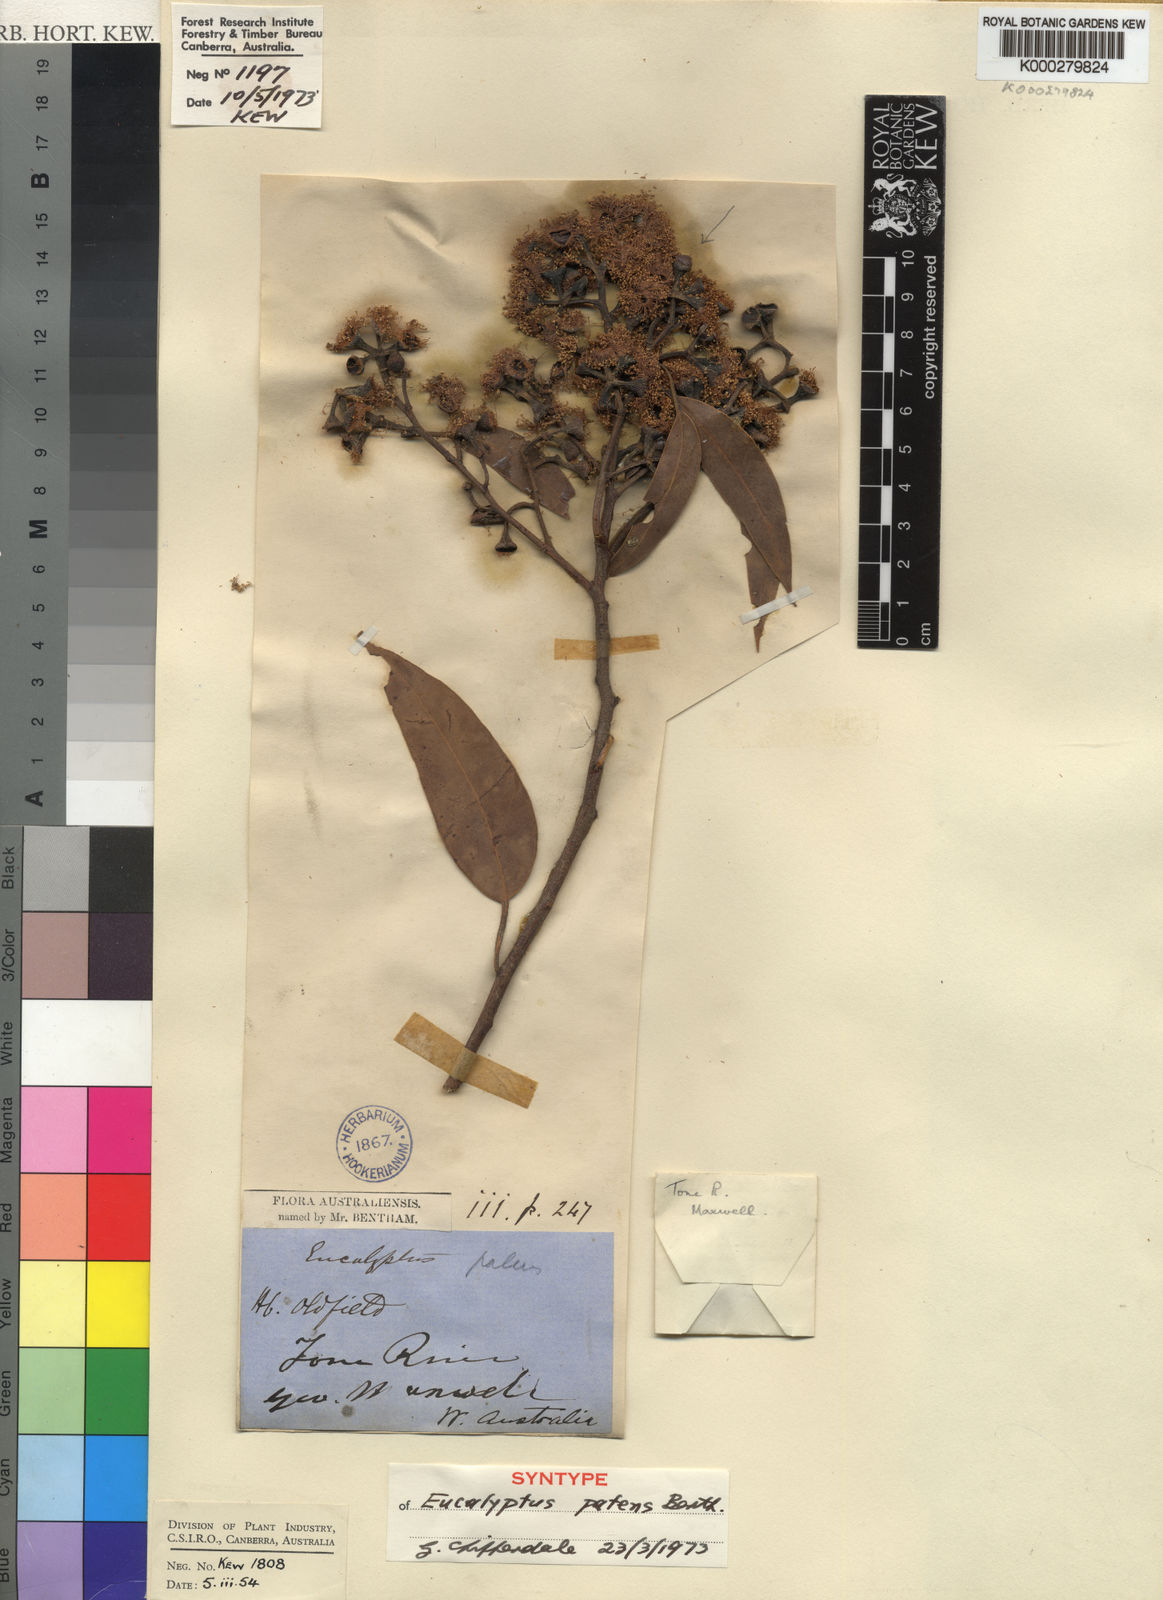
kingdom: Plantae
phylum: Tracheophyta
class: Magnoliopsida
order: Myrtales
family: Myrtaceae
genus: Eucalyptus
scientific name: Eucalyptus patens
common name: Swan river blackbutt
